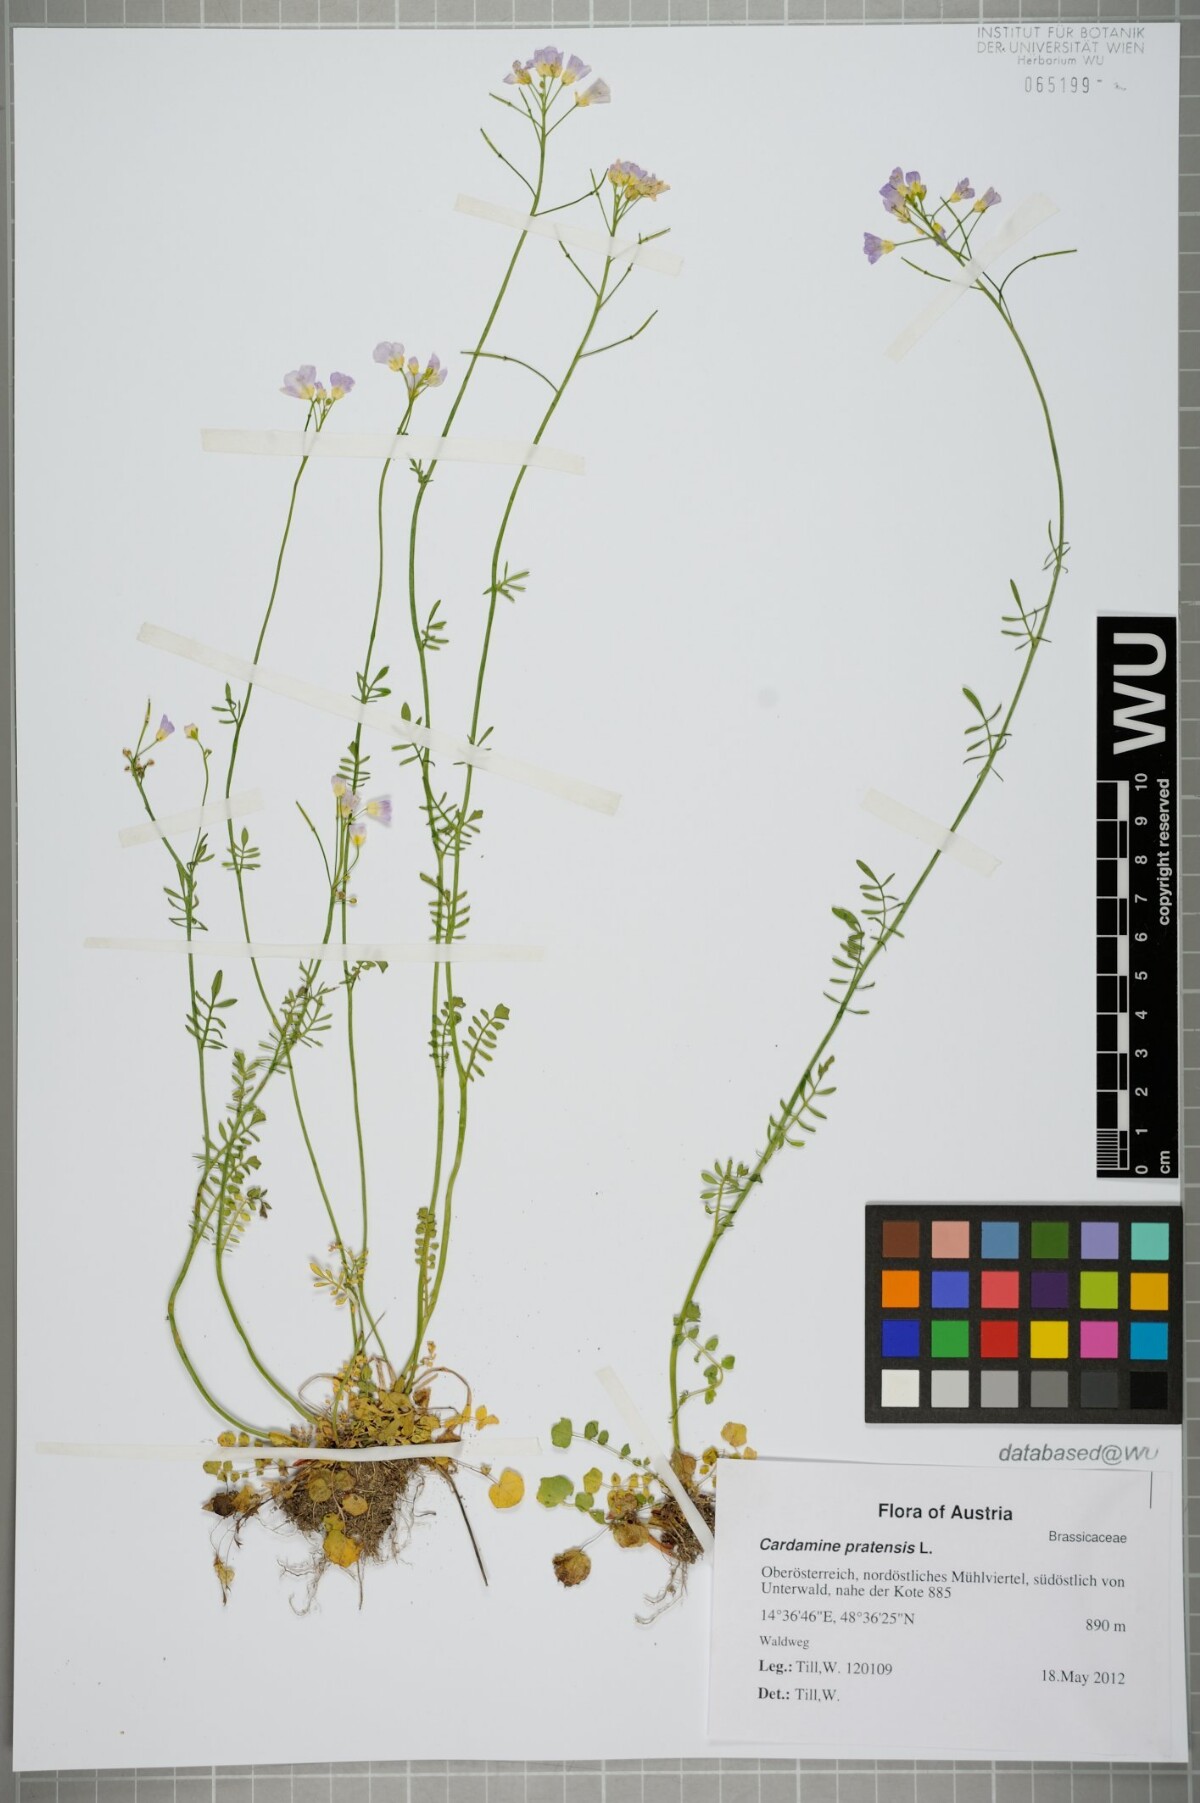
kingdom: Plantae
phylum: Tracheophyta
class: Magnoliopsida
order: Brassicales
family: Brassicaceae
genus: Cardamine
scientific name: Cardamine pratensis
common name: Cuckoo flower
